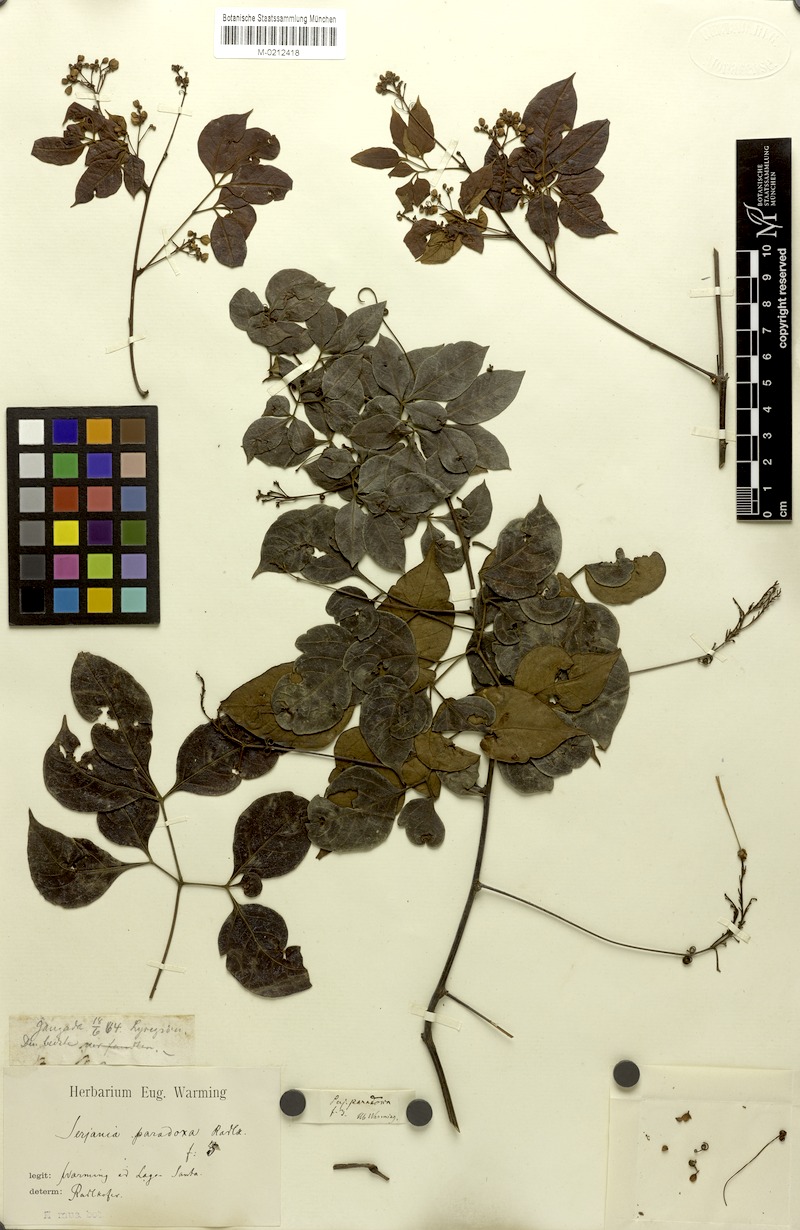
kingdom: Plantae
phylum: Tracheophyta
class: Magnoliopsida
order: Sapindales
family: Sapindaceae
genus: Serjania
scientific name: Serjania paradoxa
